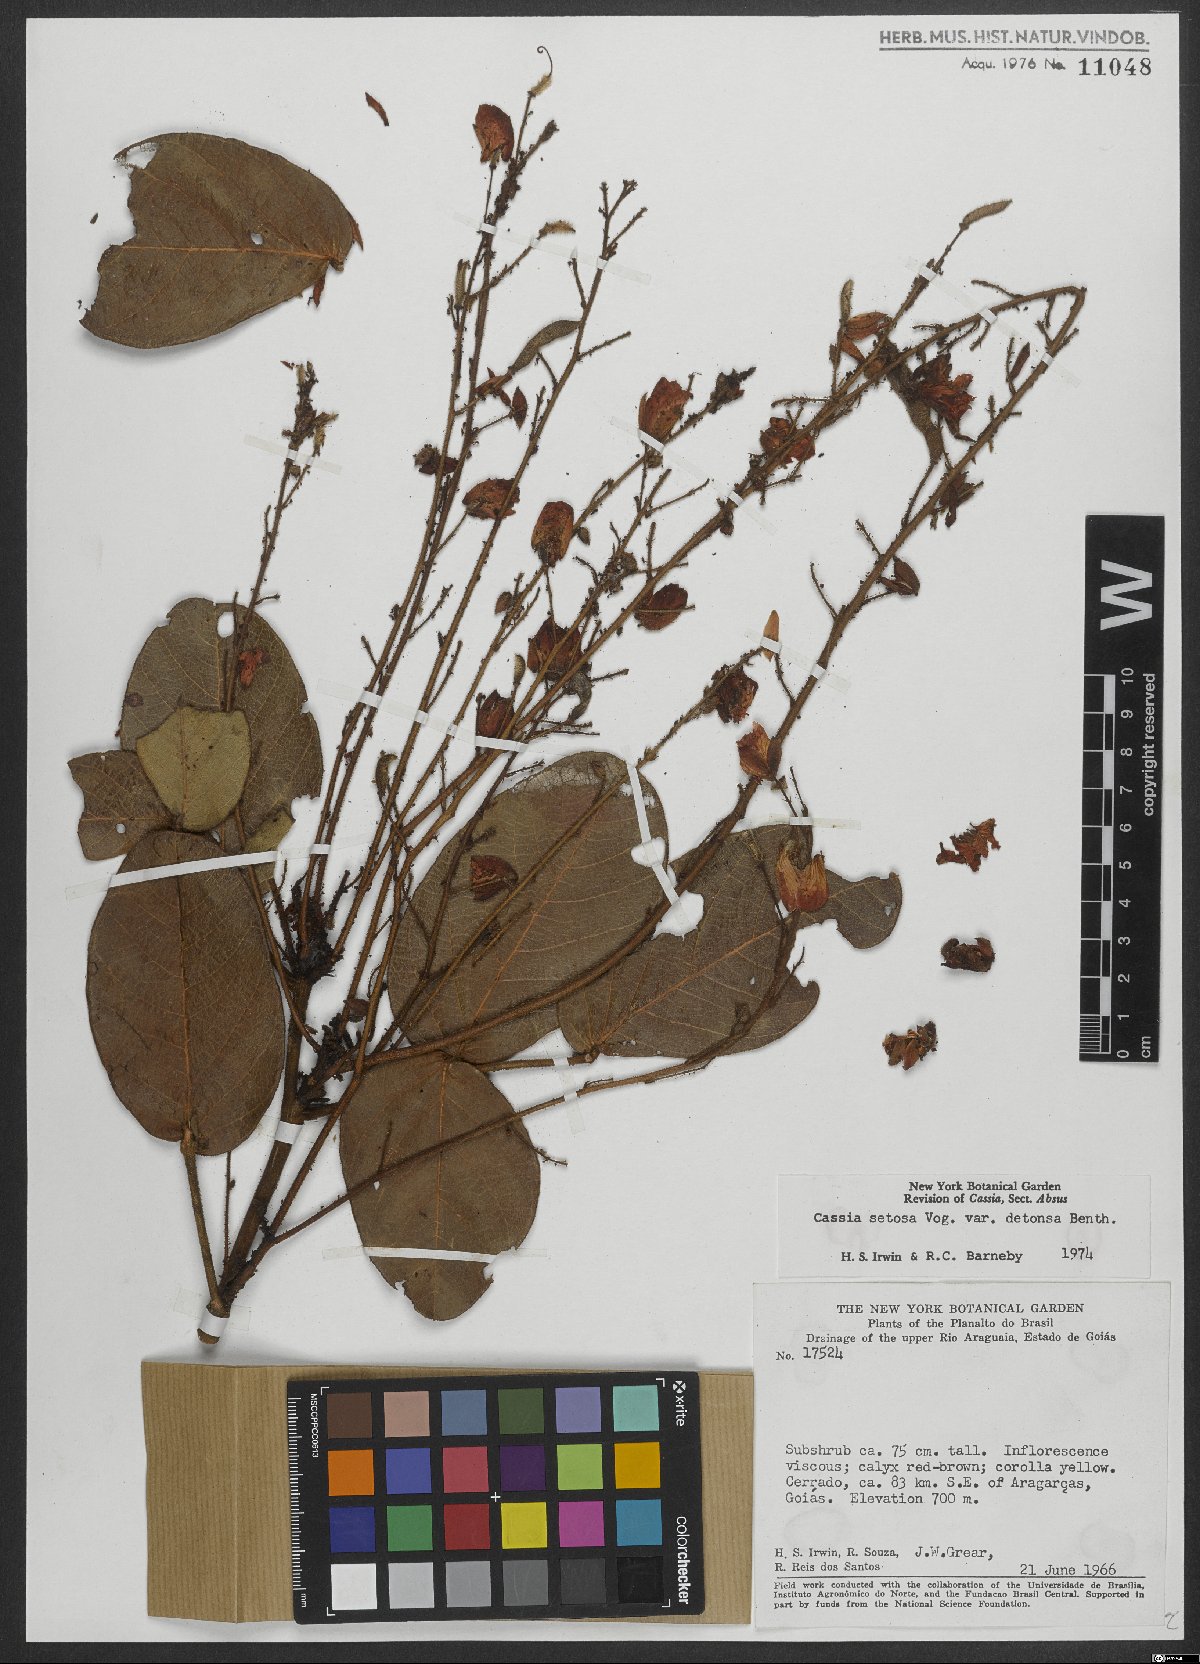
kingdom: Plantae
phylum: Tracheophyta
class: Magnoliopsida
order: Fabales
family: Fabaceae
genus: Chamaecrista
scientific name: Chamaecrista setosa
